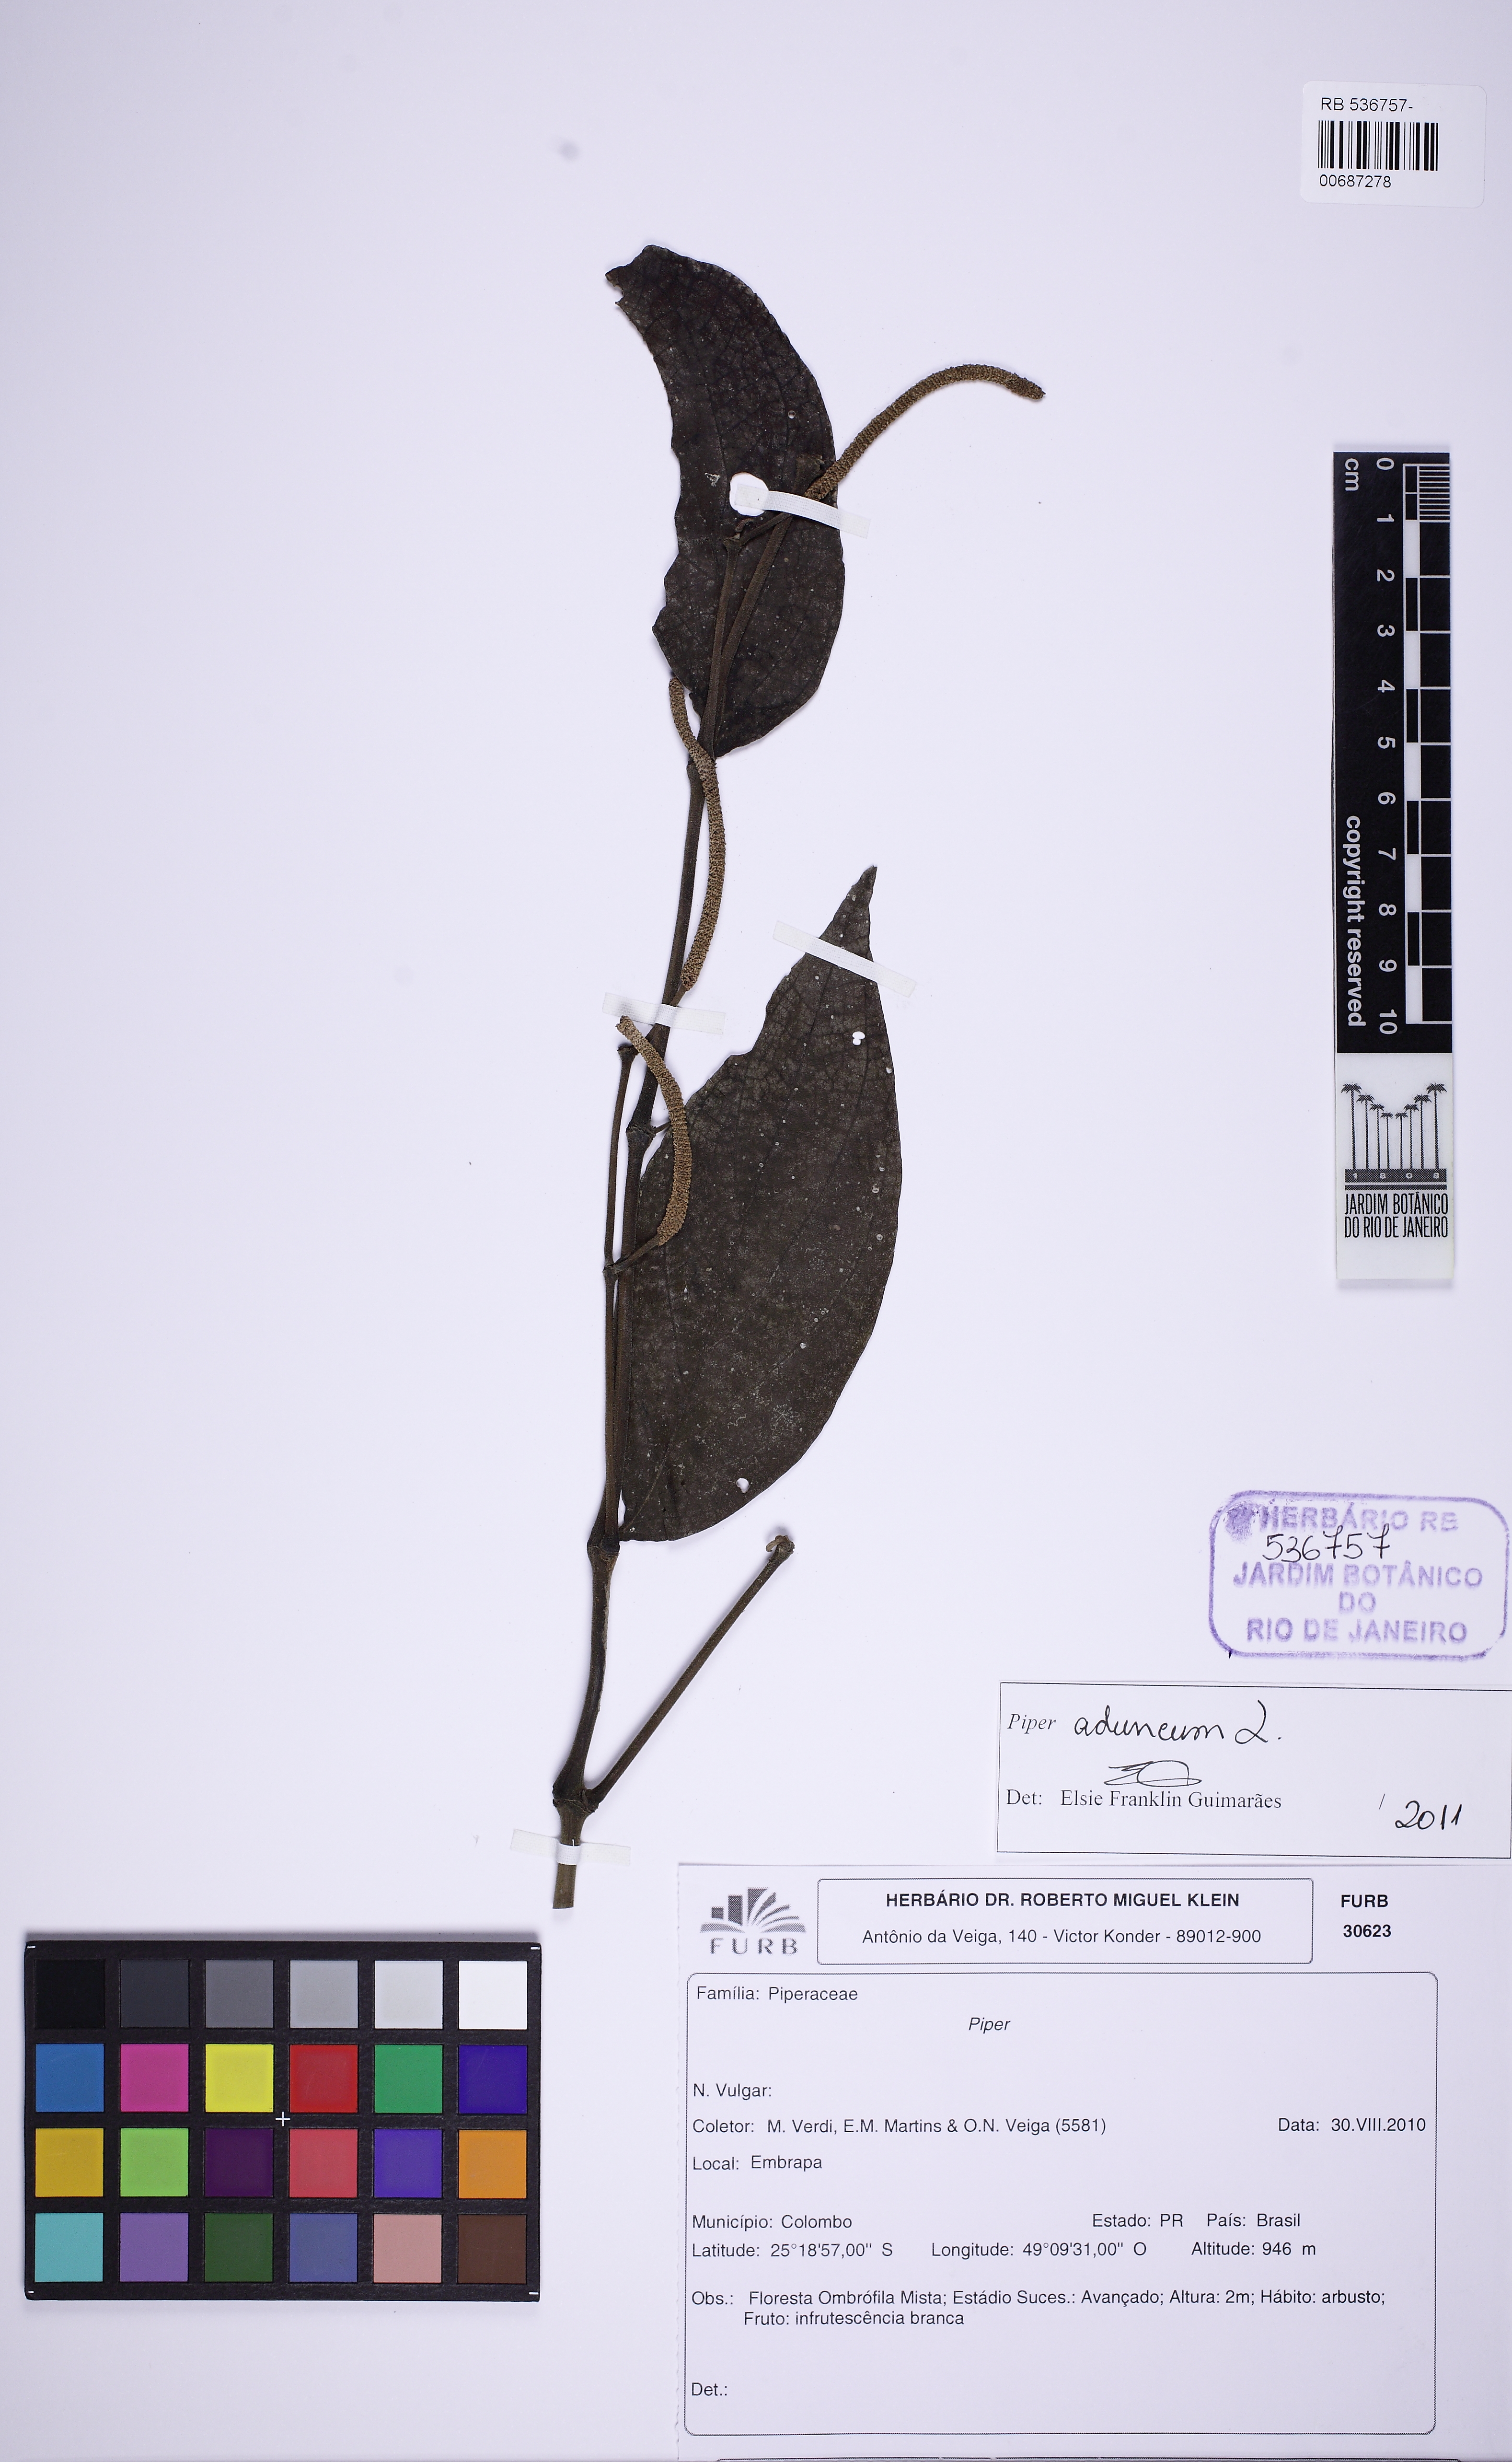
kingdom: Plantae
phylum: Tracheophyta
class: Magnoliopsida
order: Piperales
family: Piperaceae
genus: Piper
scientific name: Piper aduncum
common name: Spiked pepper
